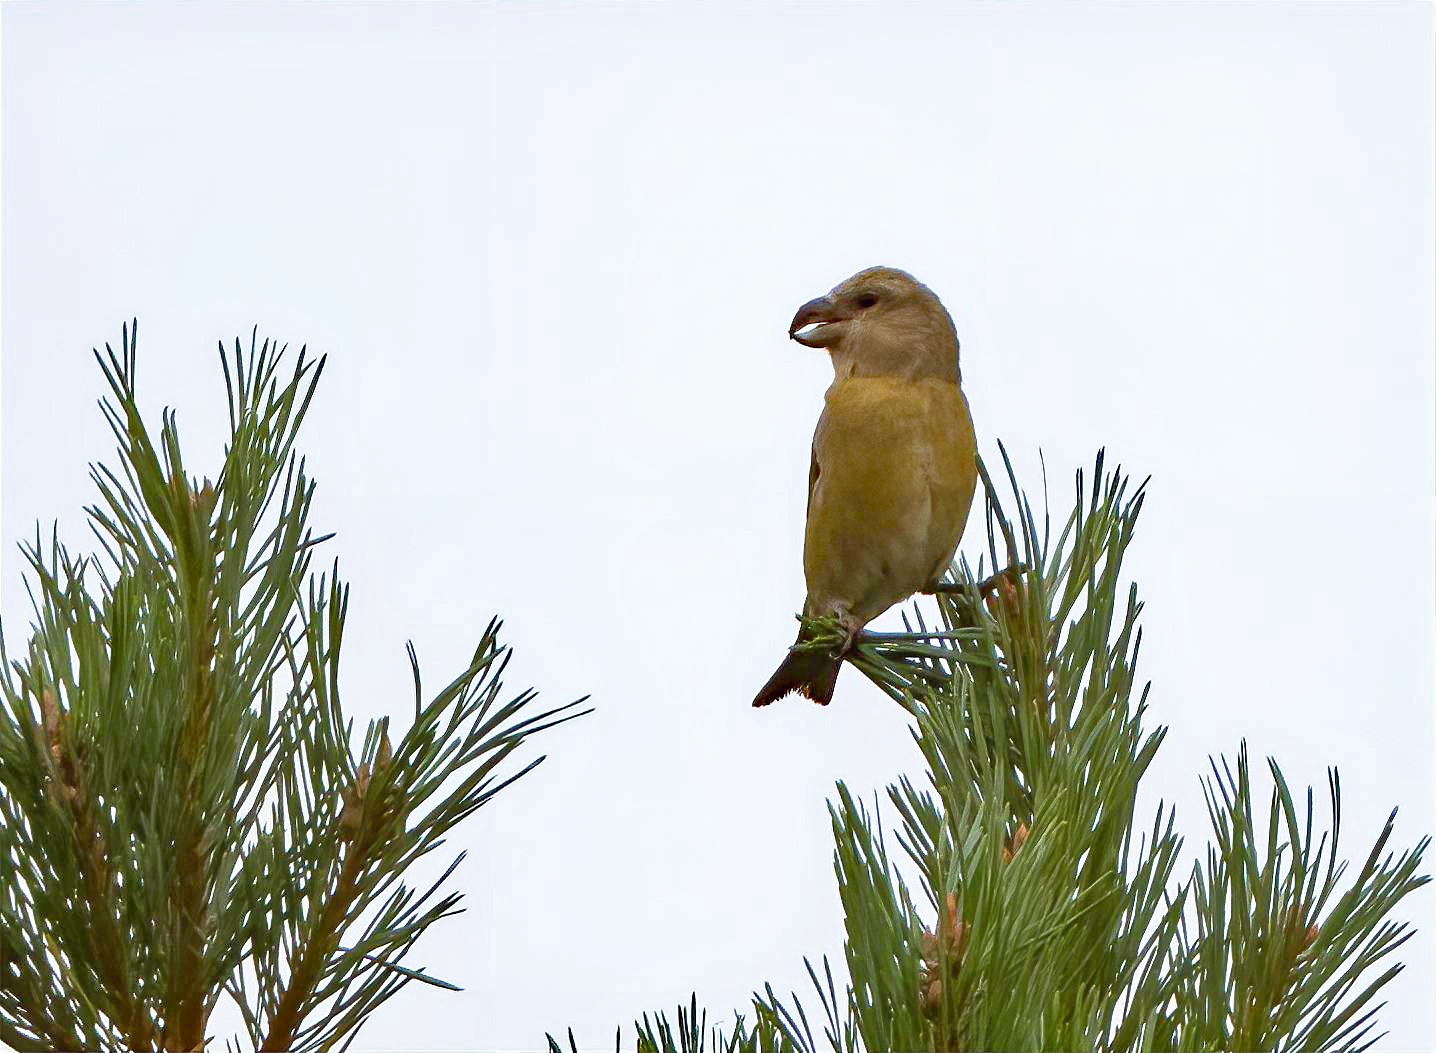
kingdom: Animalia
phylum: Chordata
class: Aves
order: Passeriformes
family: Fringillidae
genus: Loxia
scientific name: Loxia pytyopsittacus
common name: Stor korsnæb
